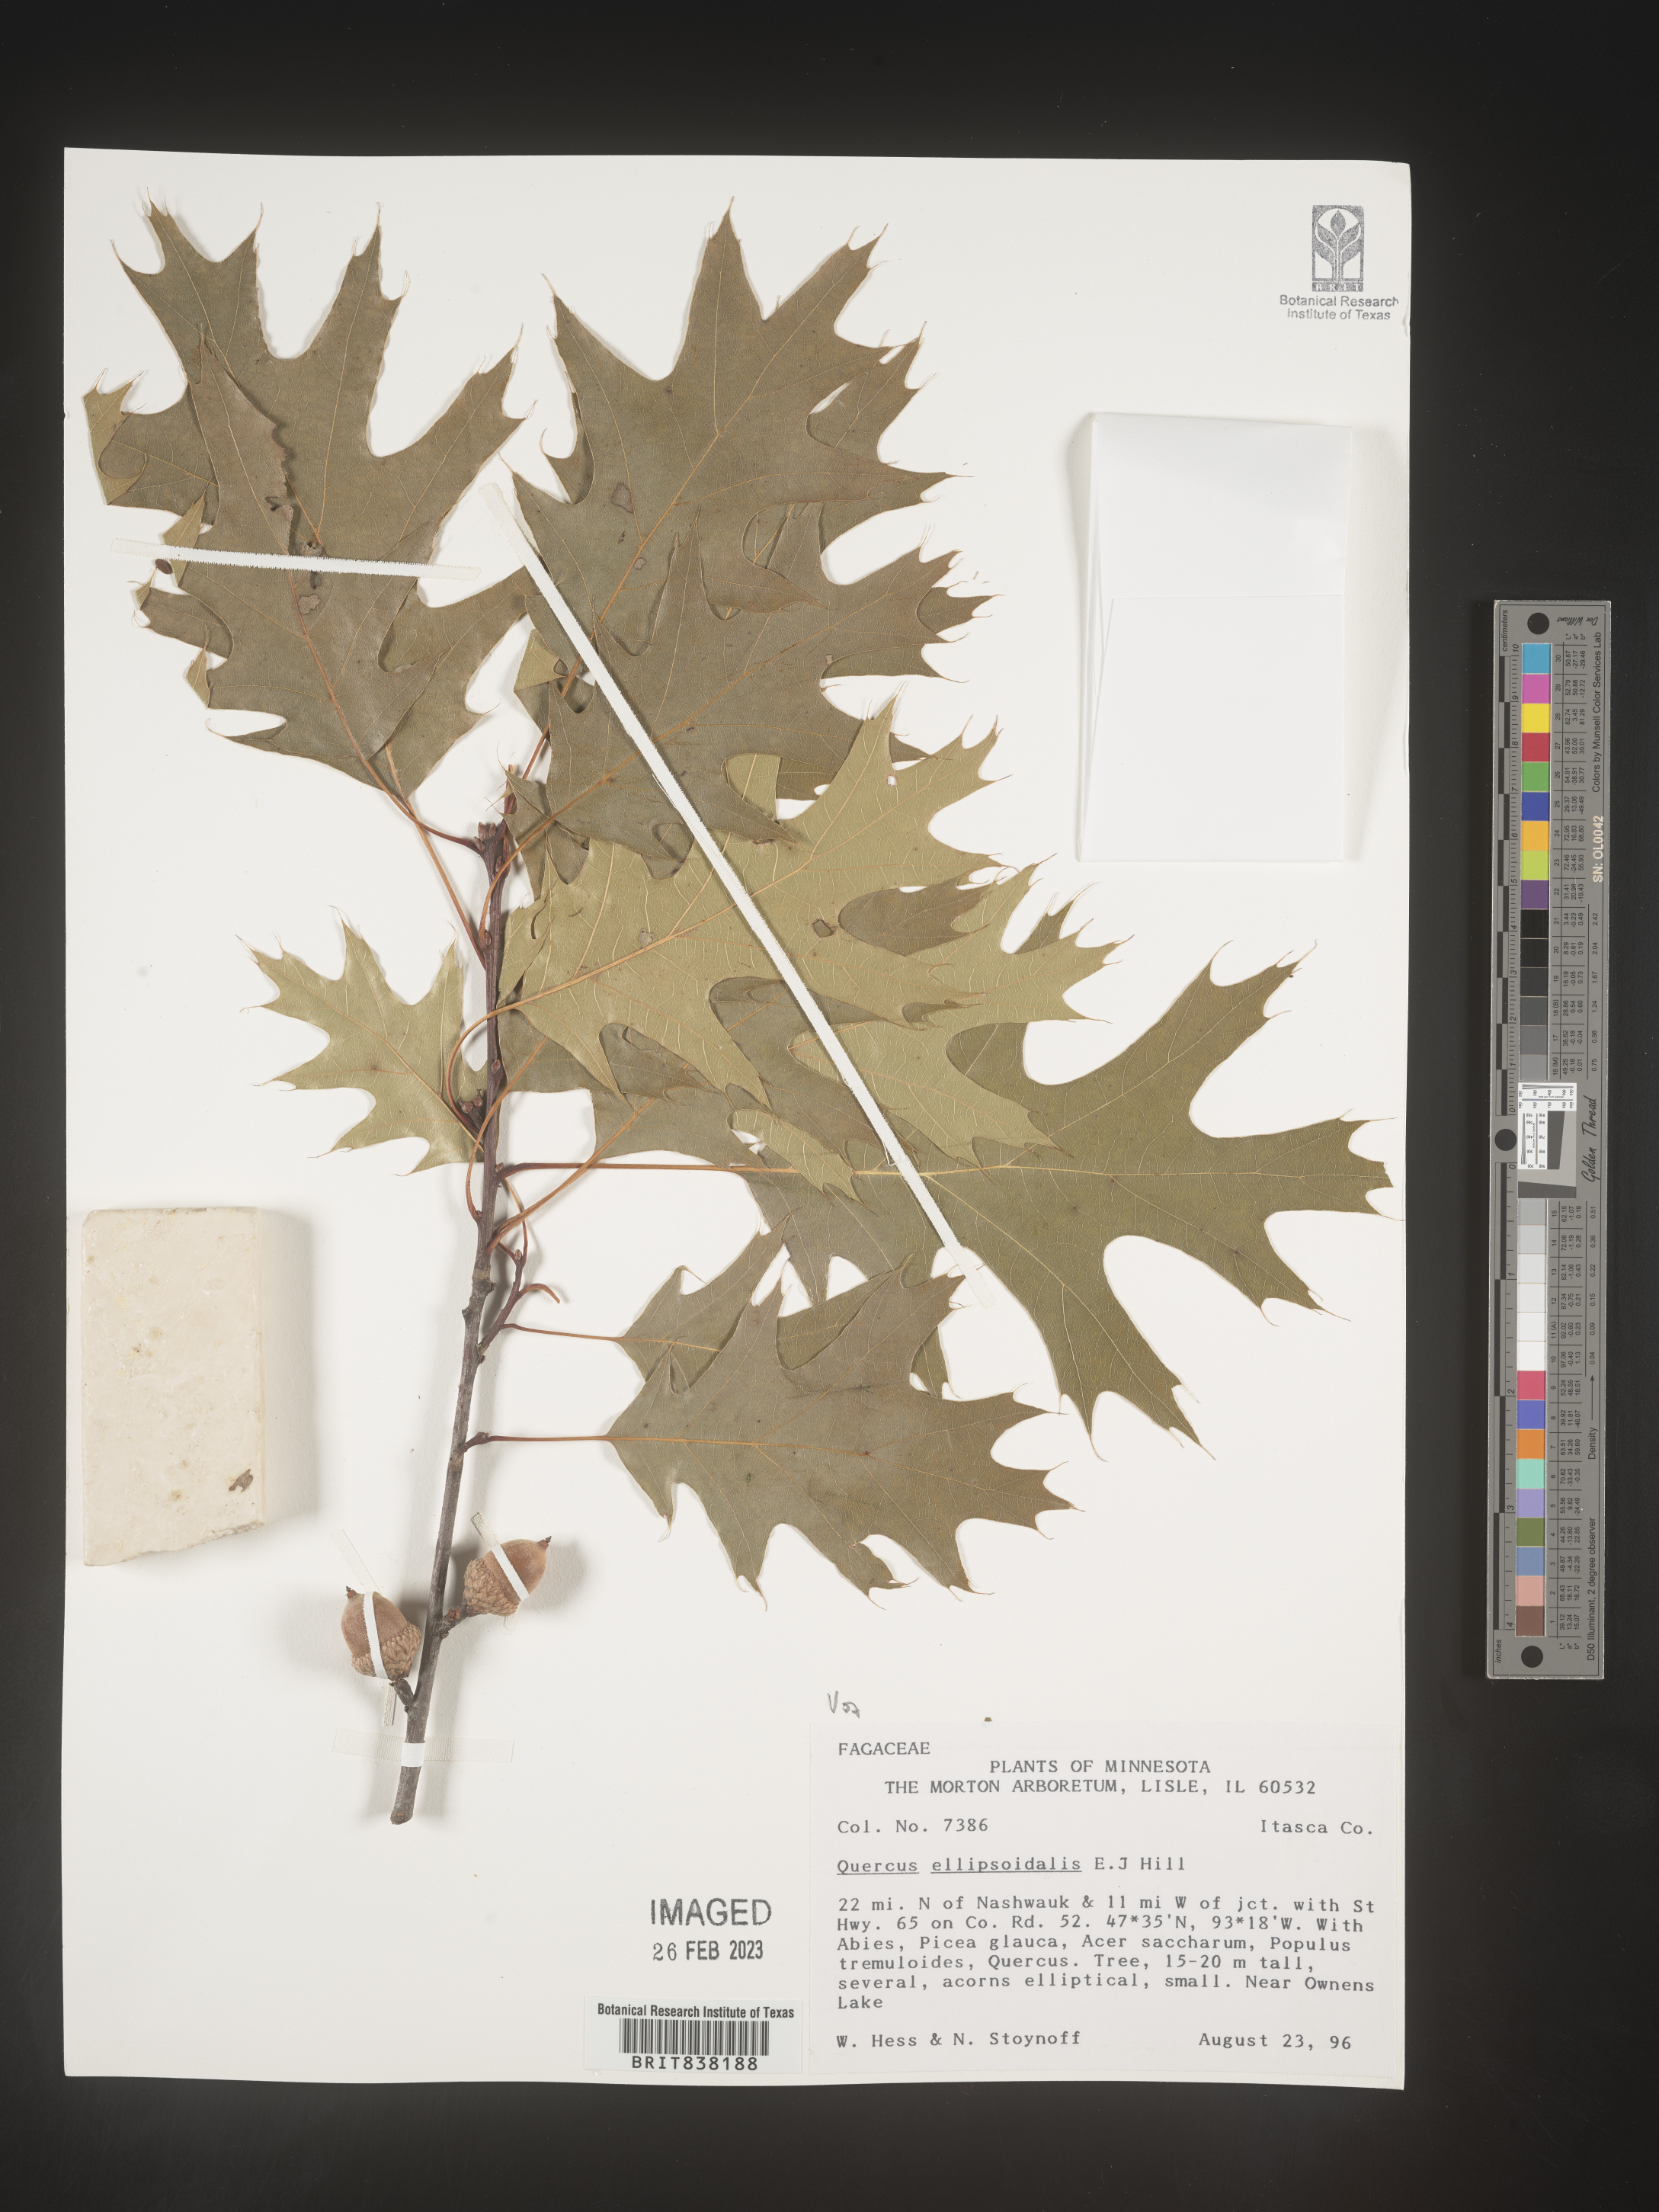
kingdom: Plantae
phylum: Tracheophyta
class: Magnoliopsida
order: Fagales
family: Fagaceae
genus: Quercus
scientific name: Quercus ellipsoidalis
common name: Hill's oak
